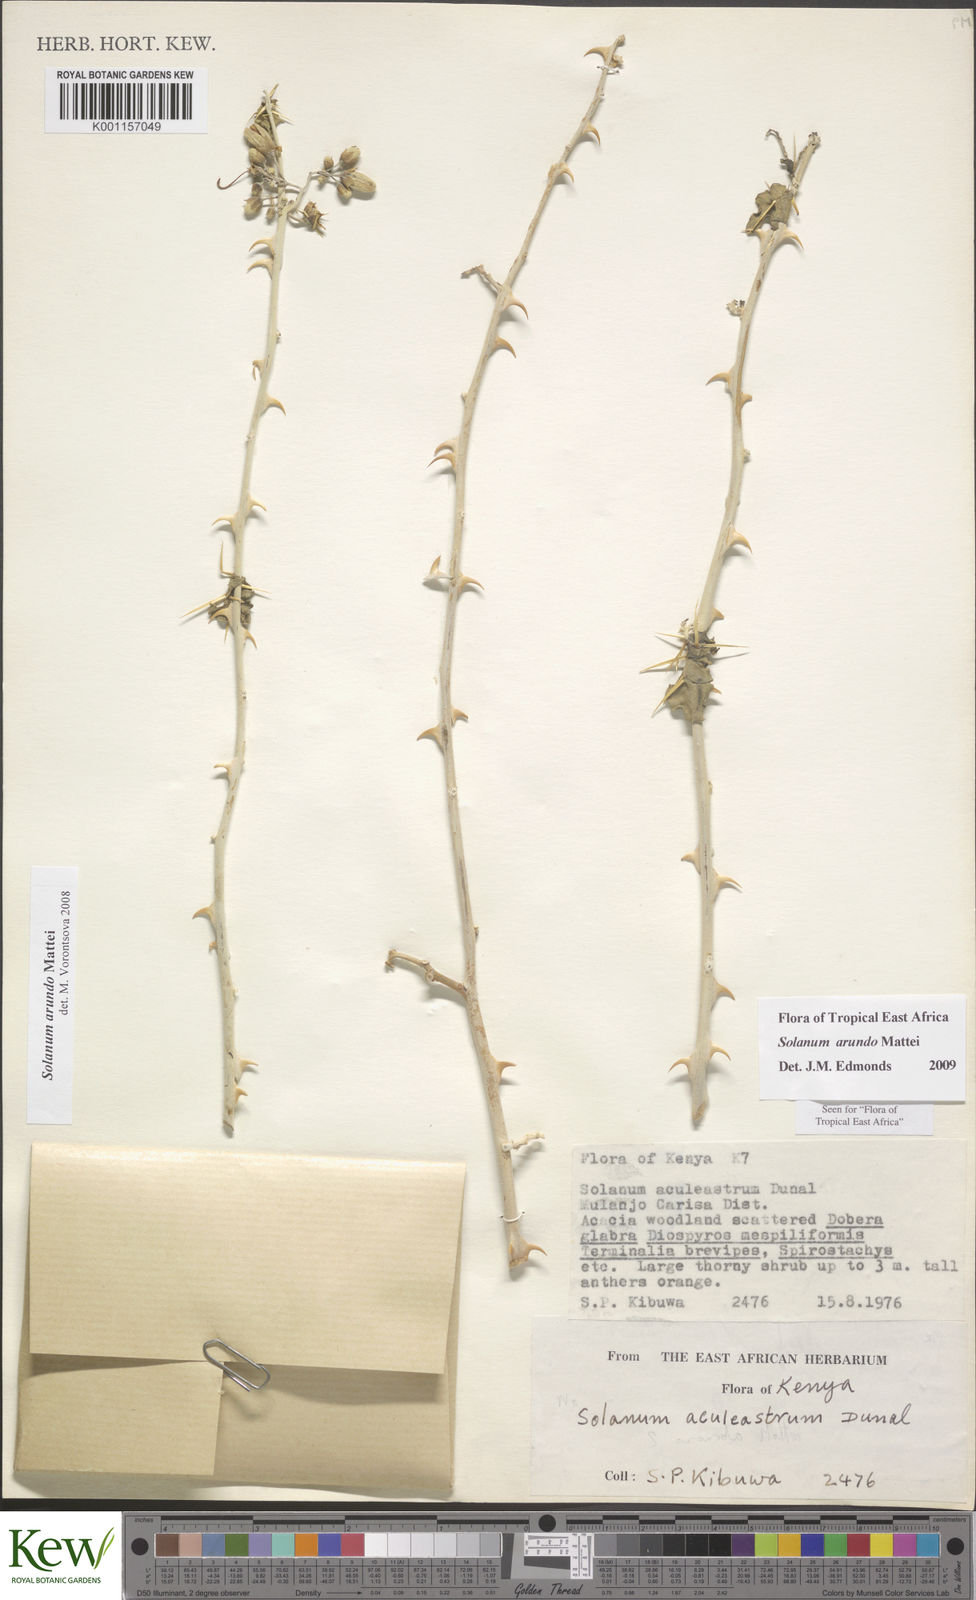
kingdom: Plantae
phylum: Tracheophyta
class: Magnoliopsida
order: Solanales
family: Solanaceae
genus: Solanum
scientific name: Solanum arundo
